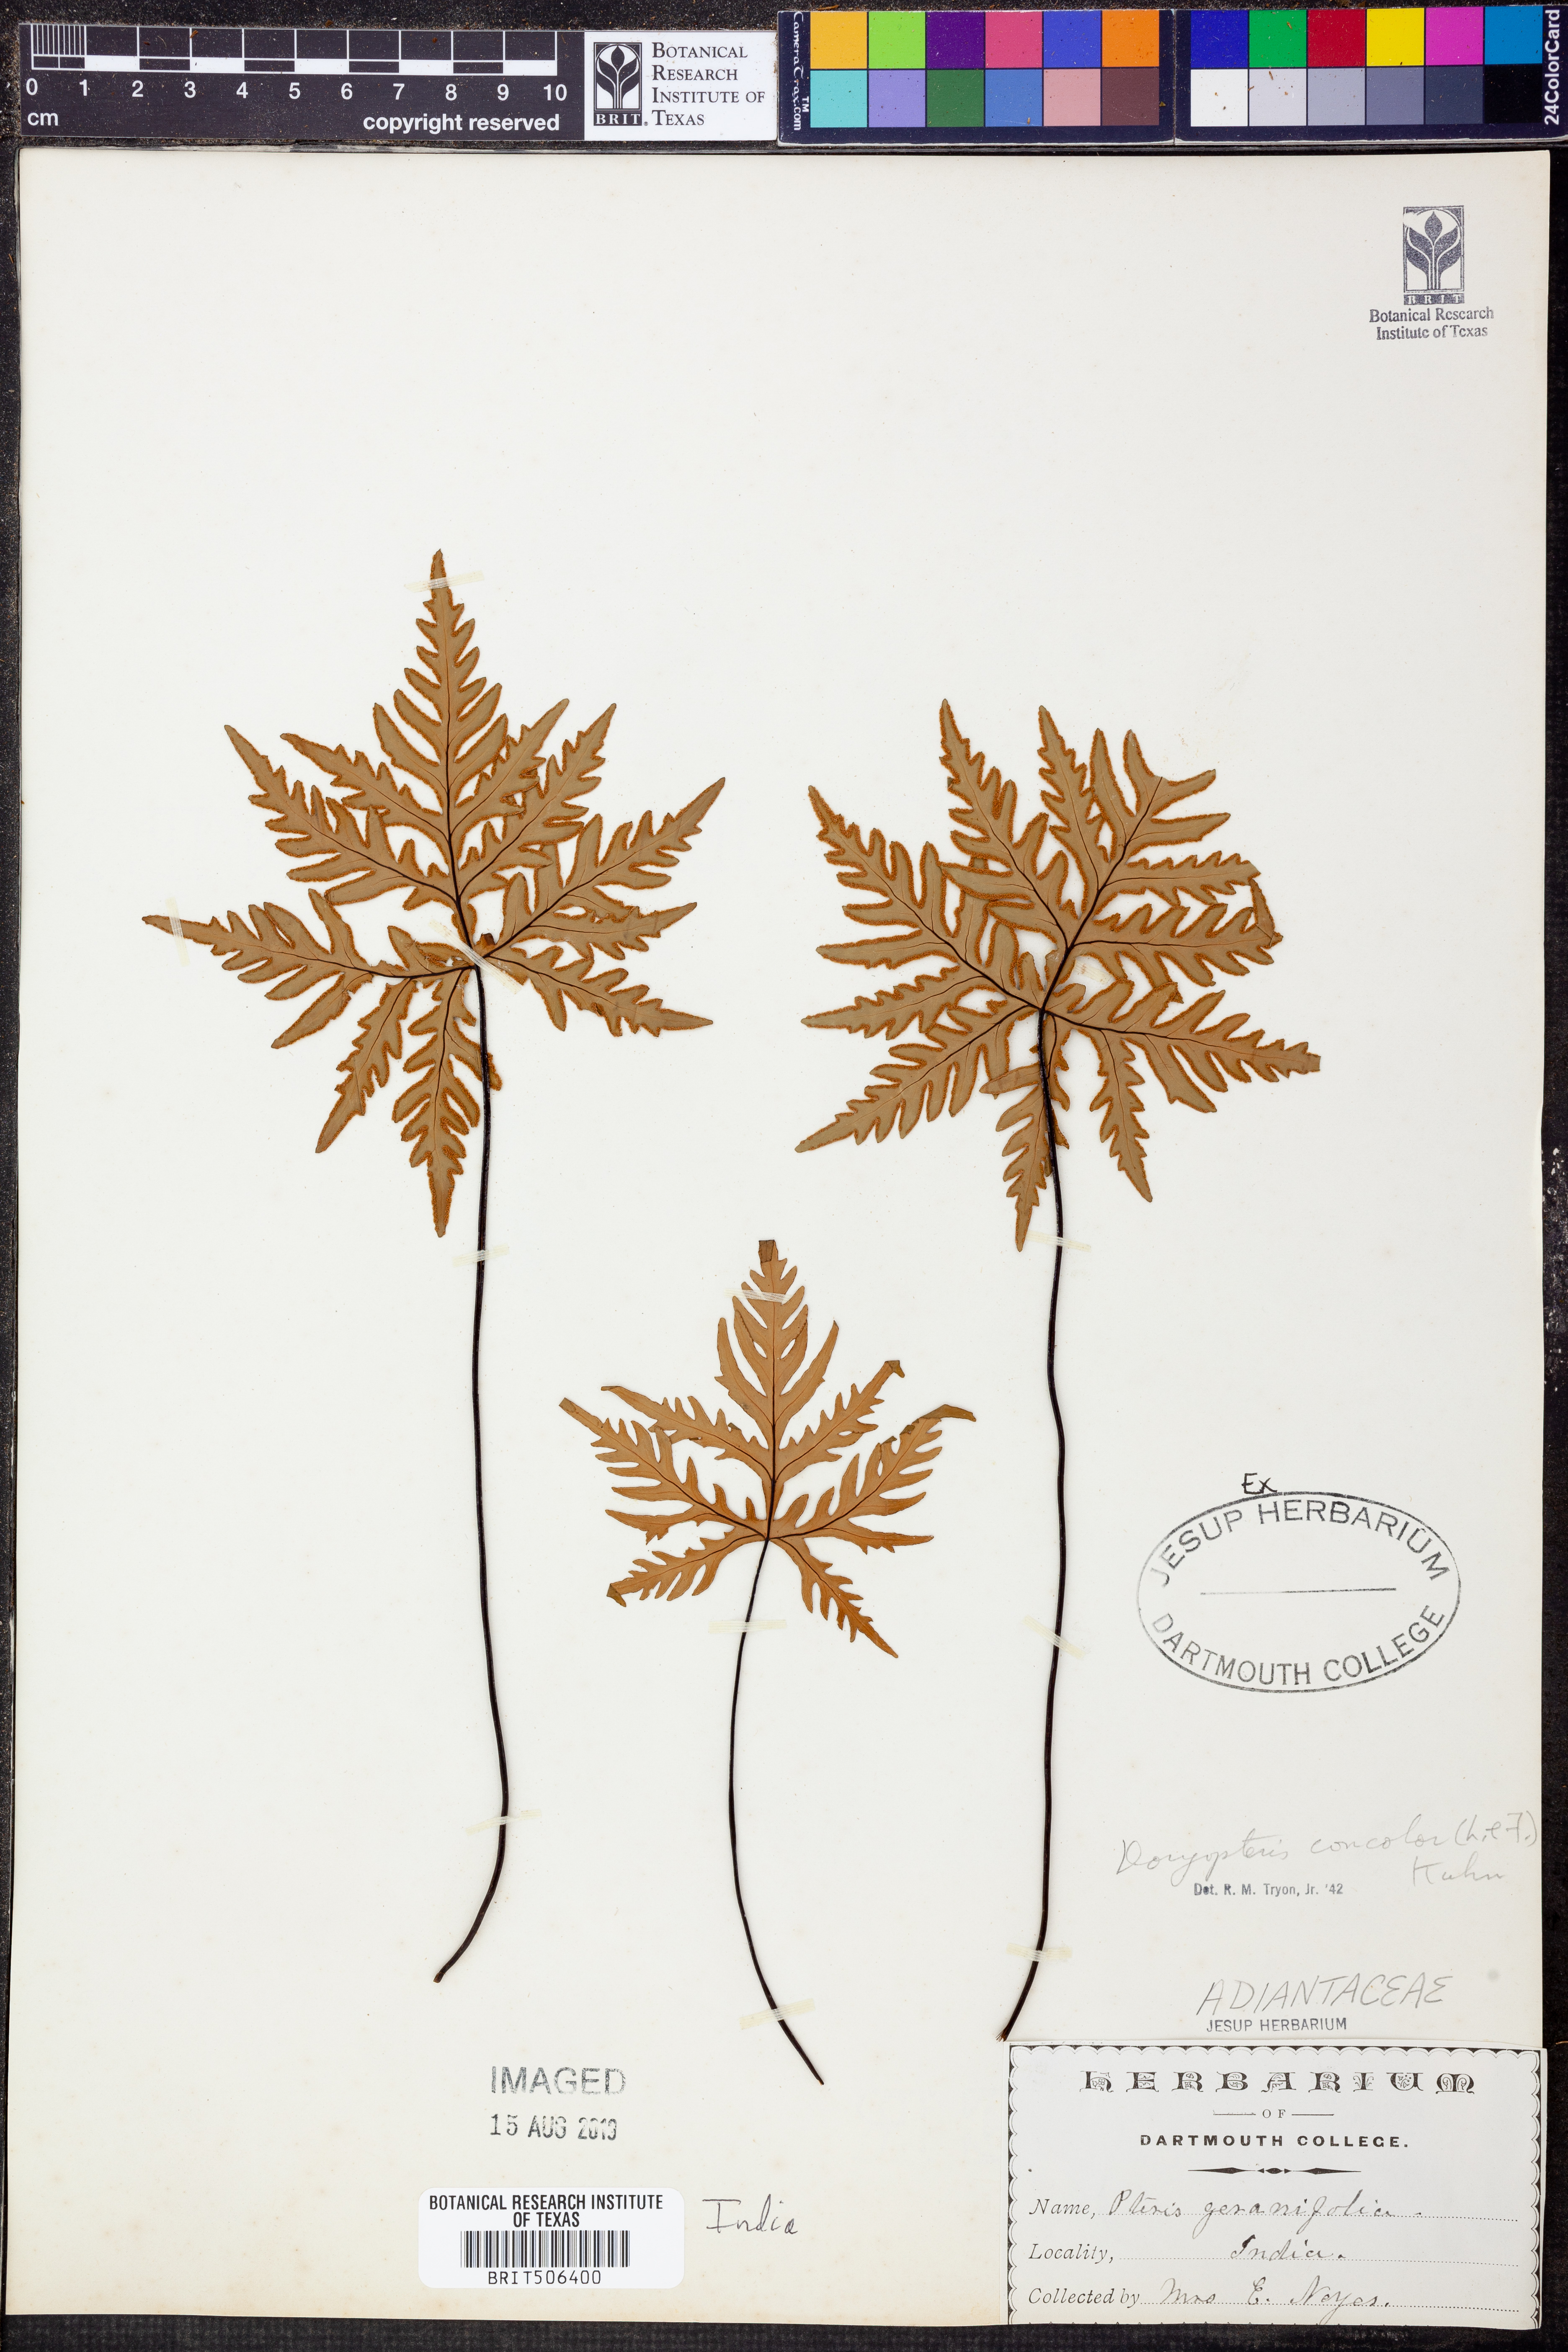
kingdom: Plantae
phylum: Tracheophyta
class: Polypodiopsida
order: Polypodiales
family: Pteridaceae
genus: Doryopteris
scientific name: Doryopteris concolor
